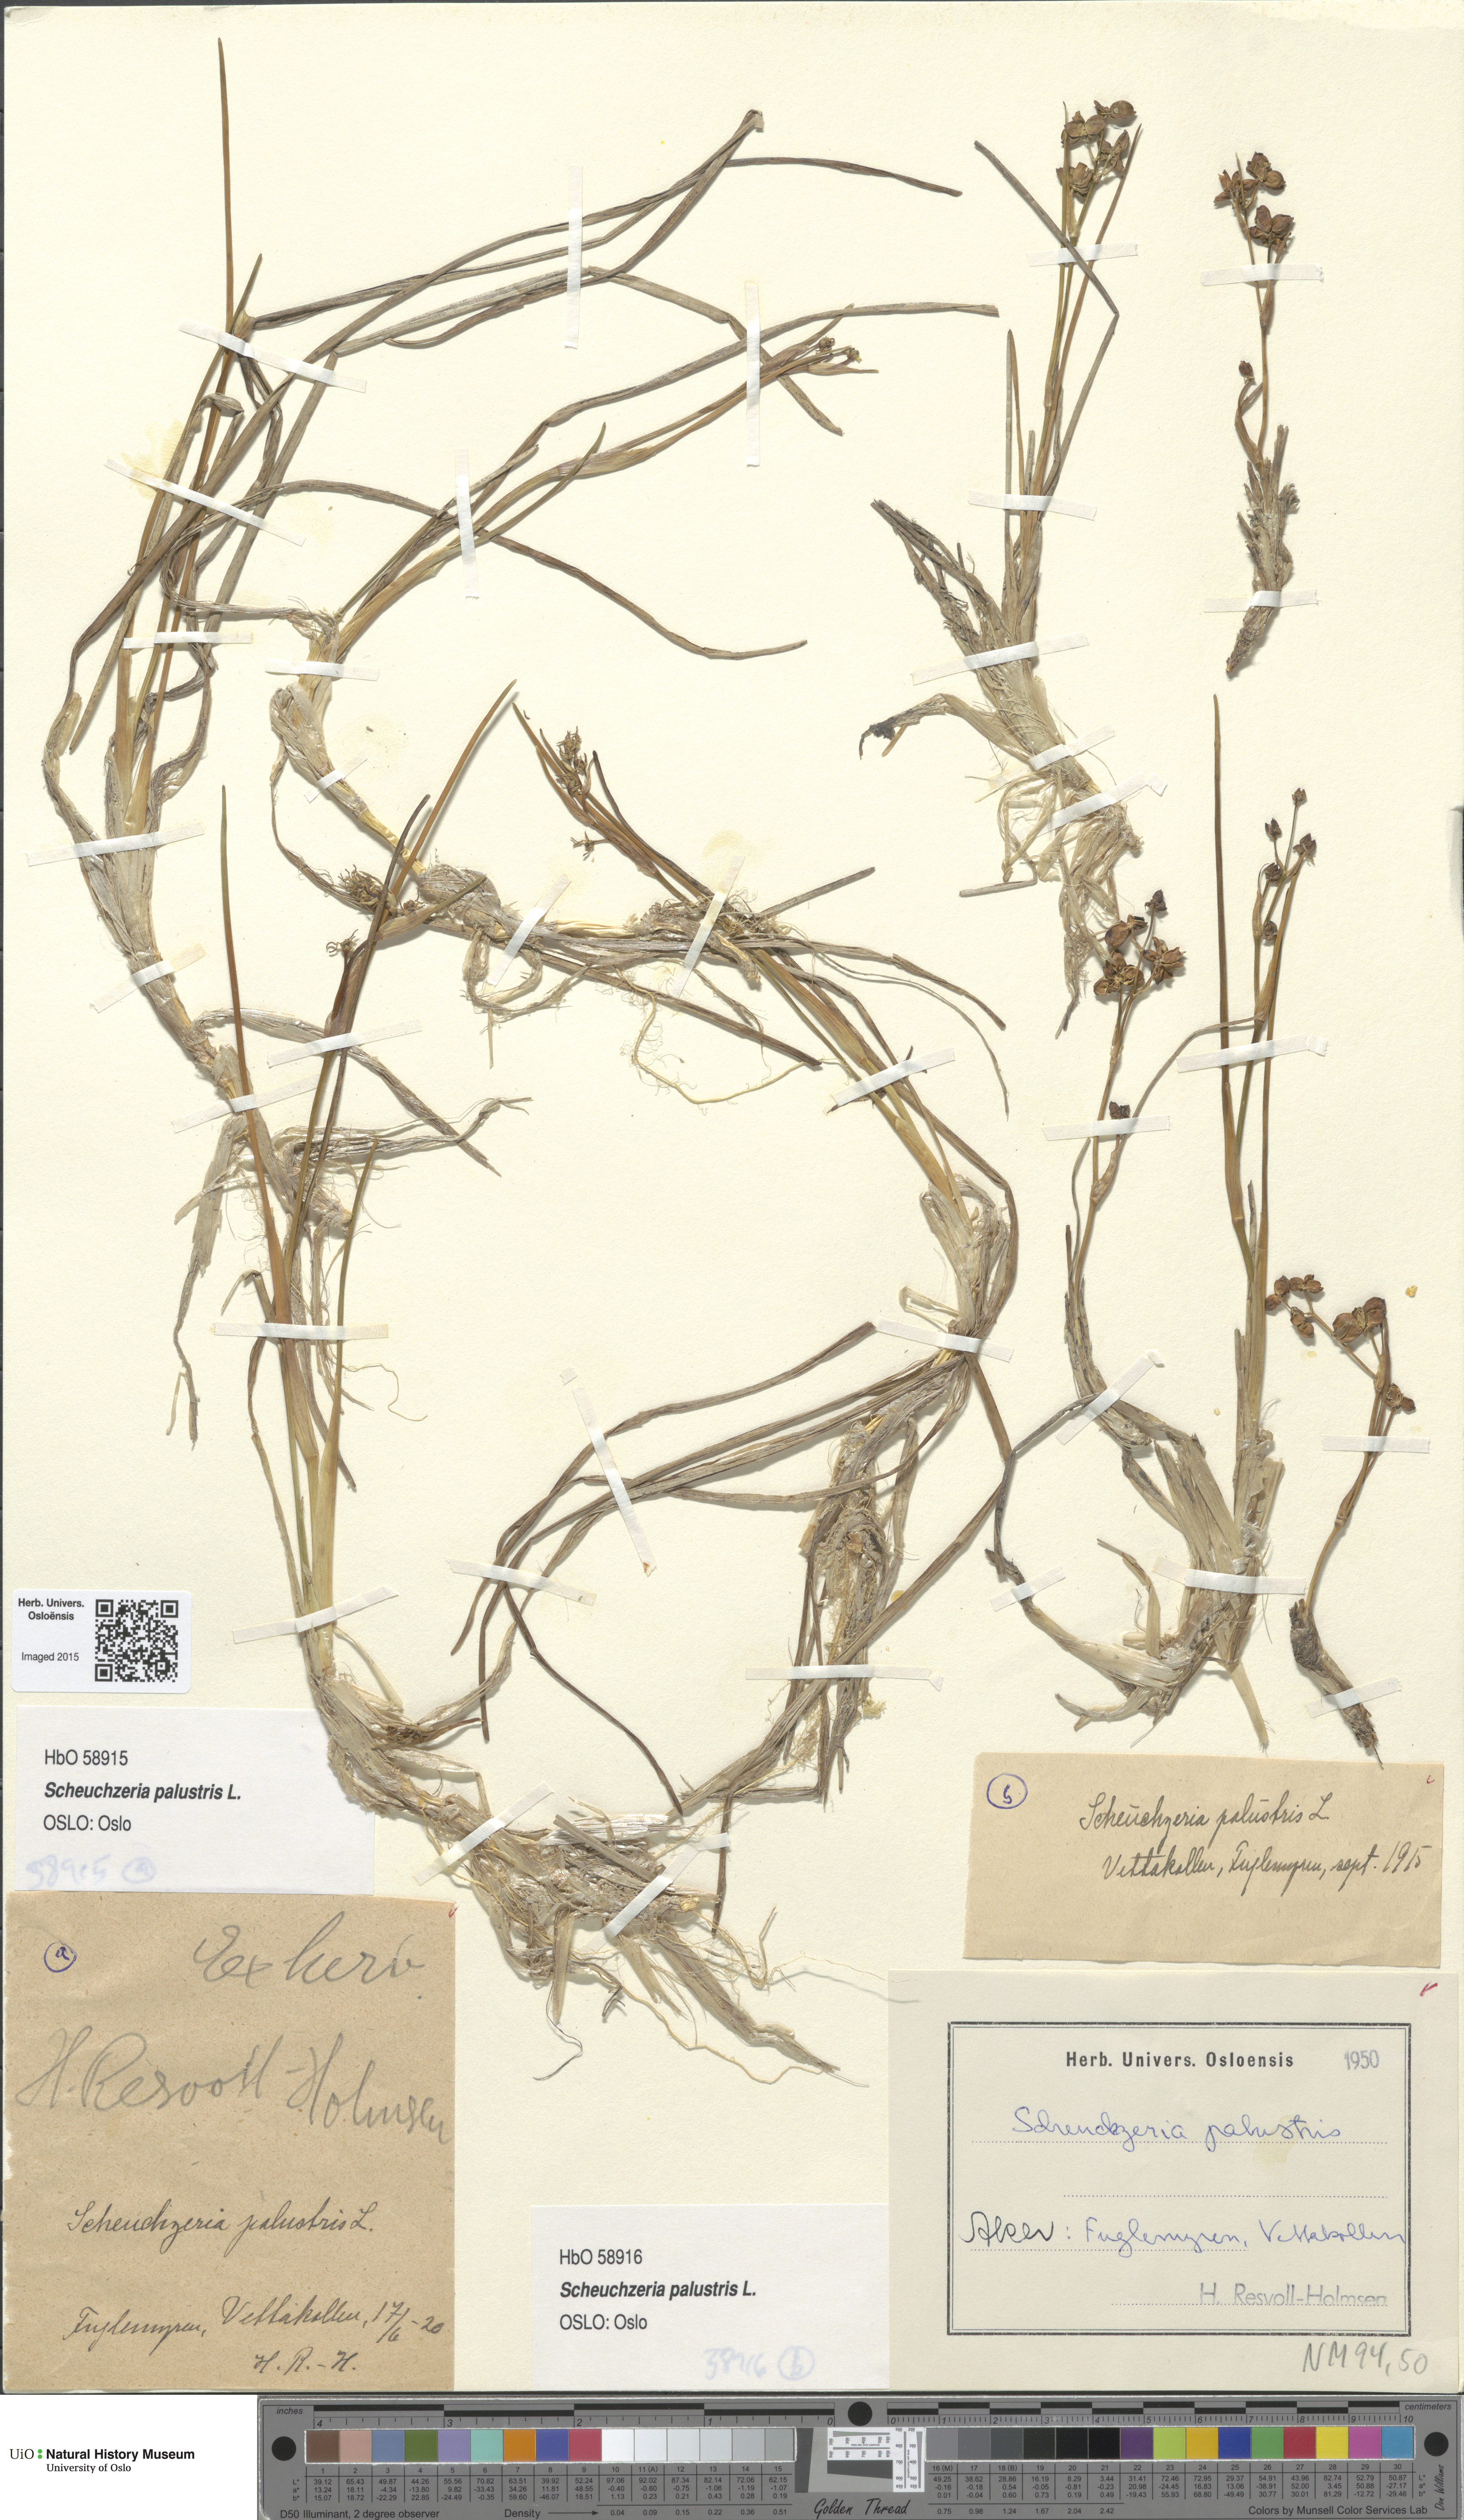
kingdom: Plantae
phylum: Tracheophyta
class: Liliopsida
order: Alismatales
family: Scheuchzeriaceae
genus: Scheuchzeria
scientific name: Scheuchzeria palustris
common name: Rannoch-rush
